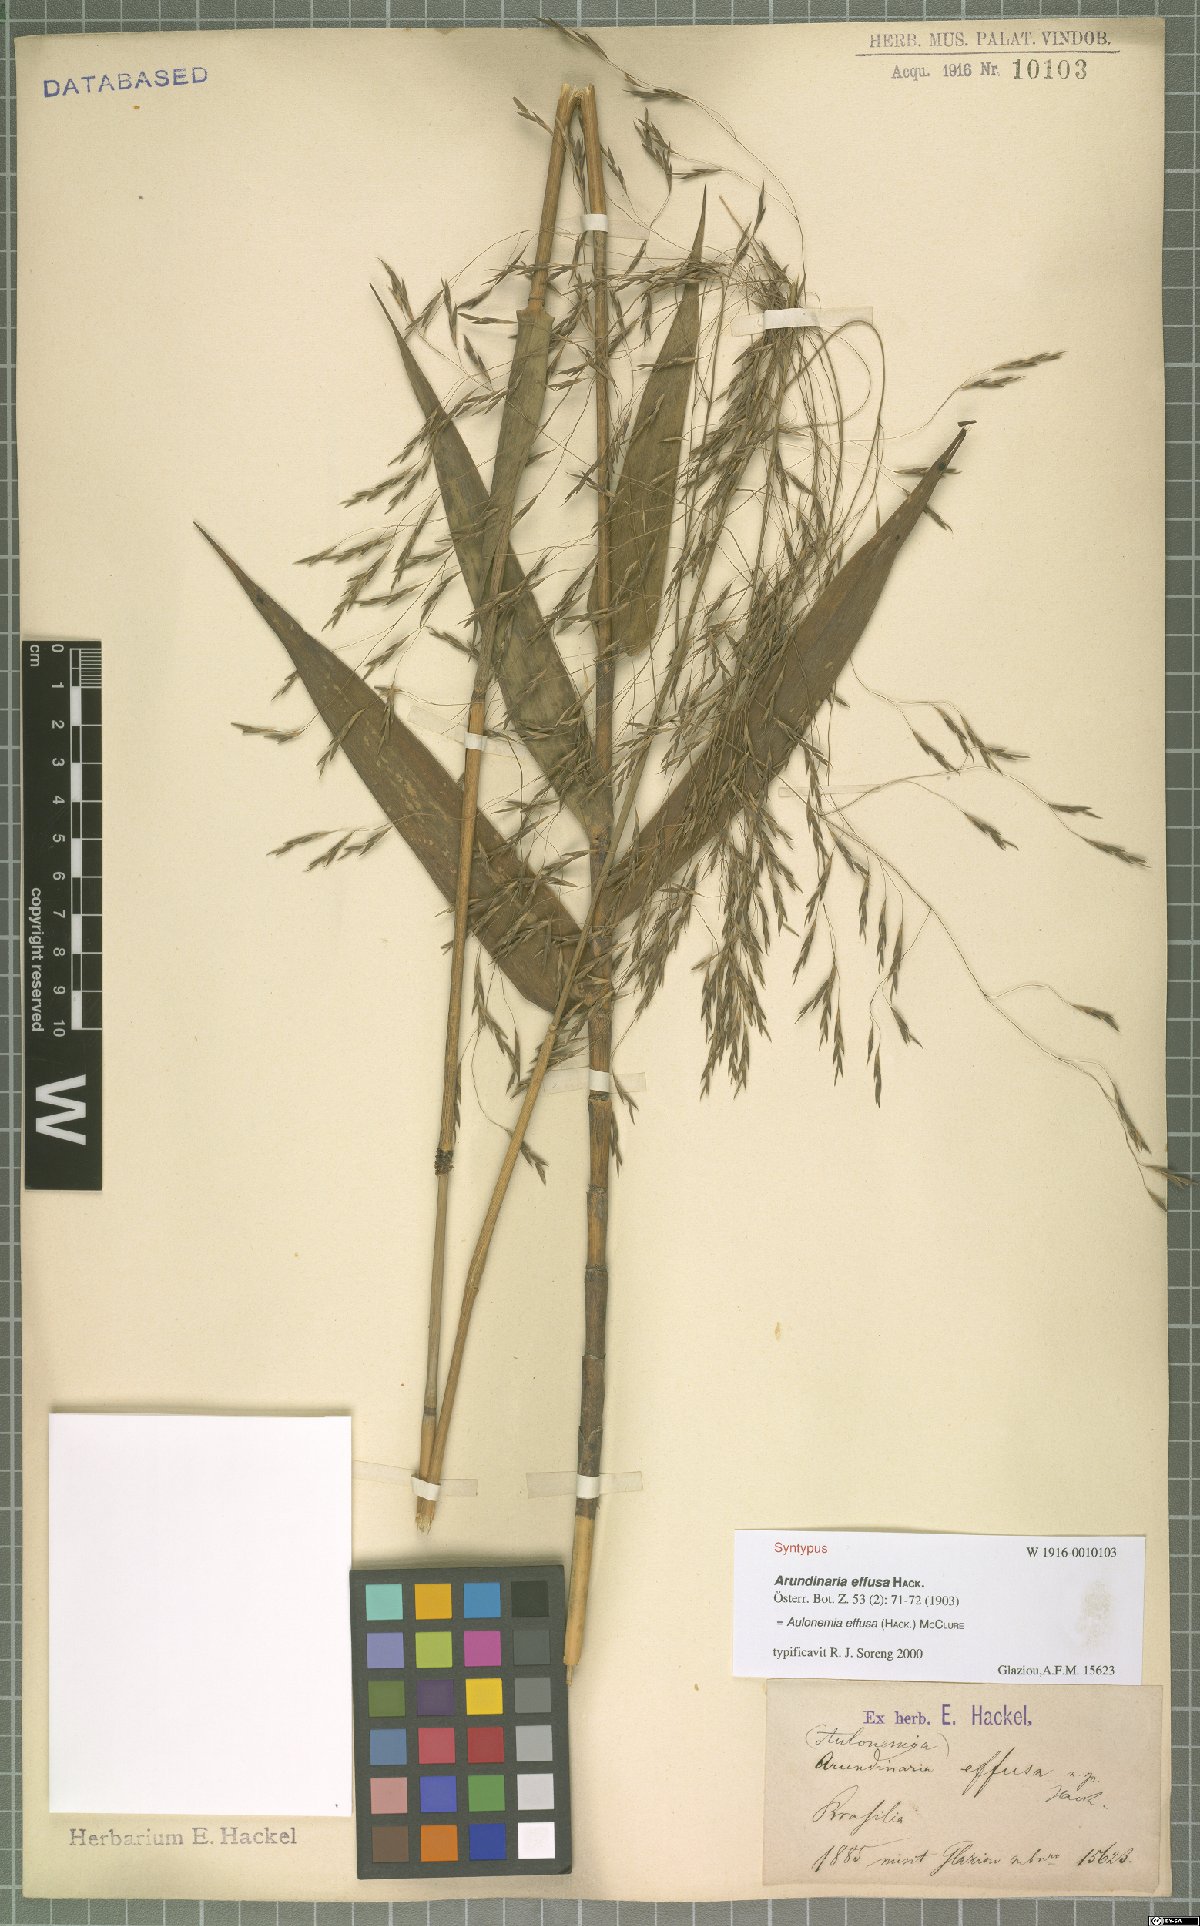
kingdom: Plantae
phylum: Tracheophyta
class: Liliopsida
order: Poales
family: Poaceae
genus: Aulonemia
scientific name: Aulonemia effusa
